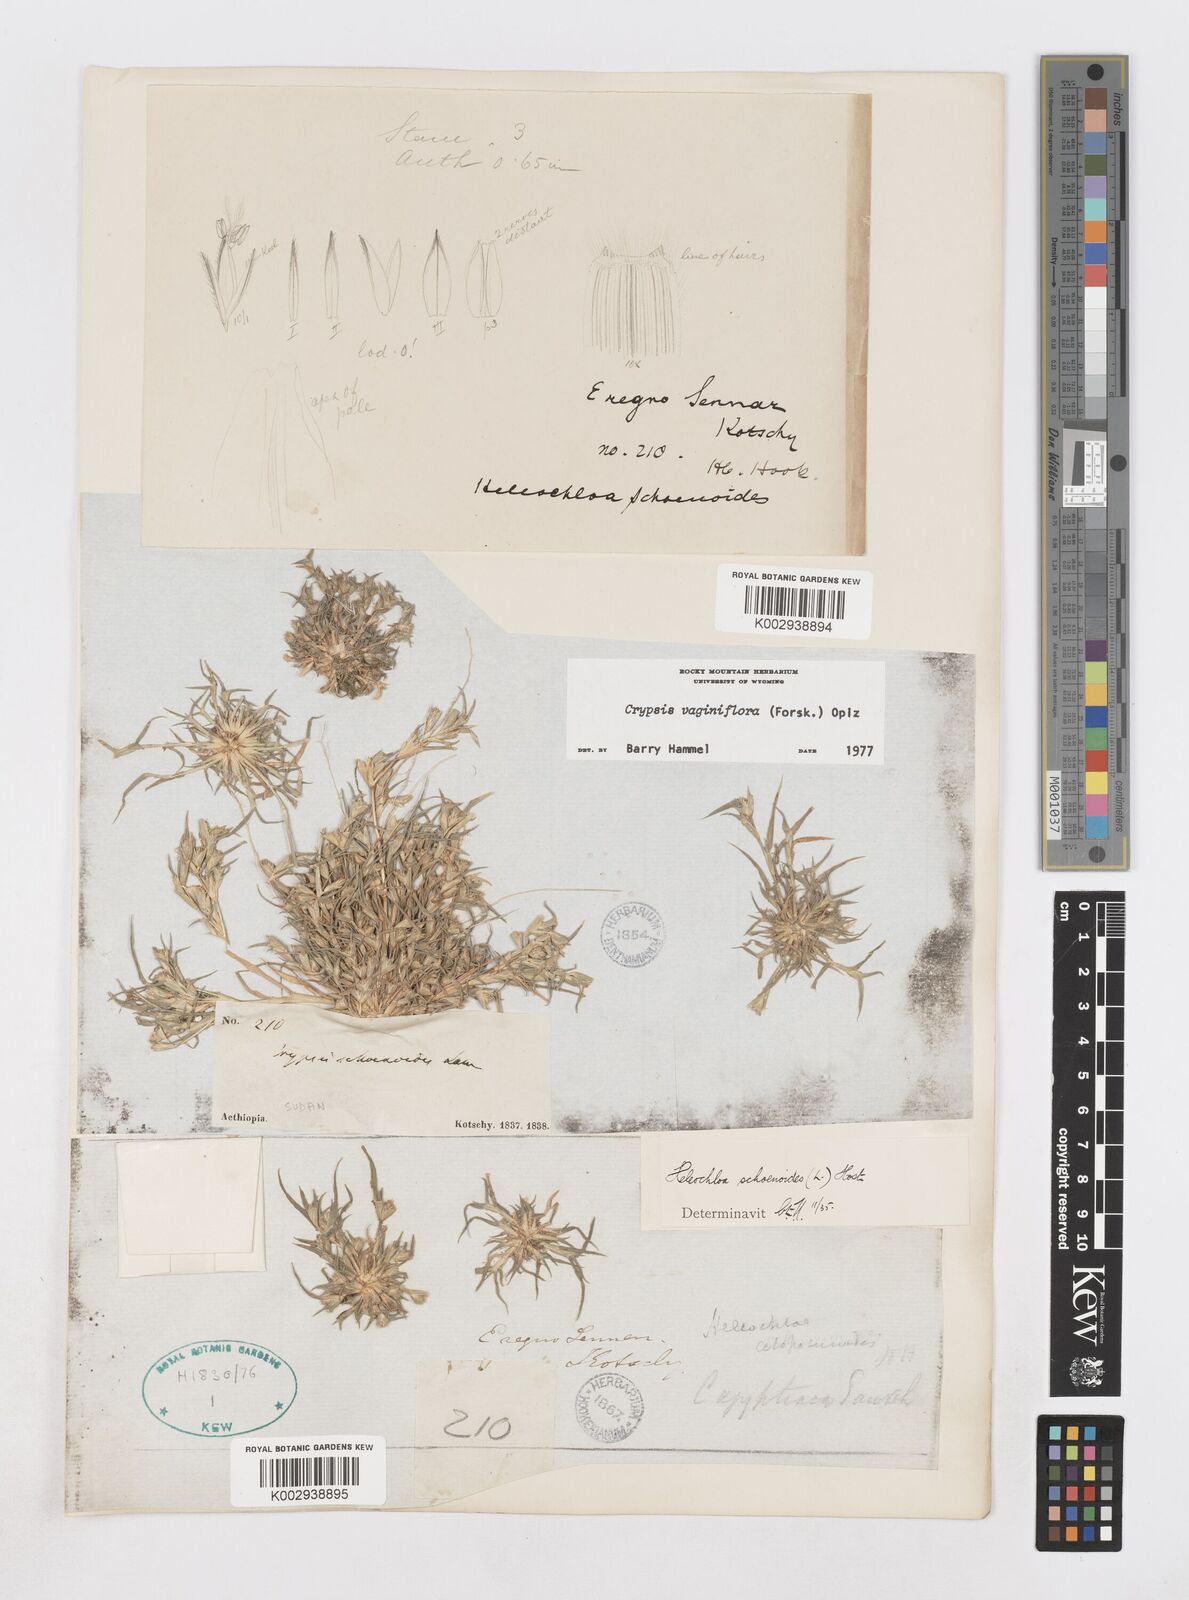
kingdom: Plantae
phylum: Tracheophyta
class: Liliopsida
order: Poales
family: Poaceae
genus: Sporobolus
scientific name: Sporobolus niliacus
